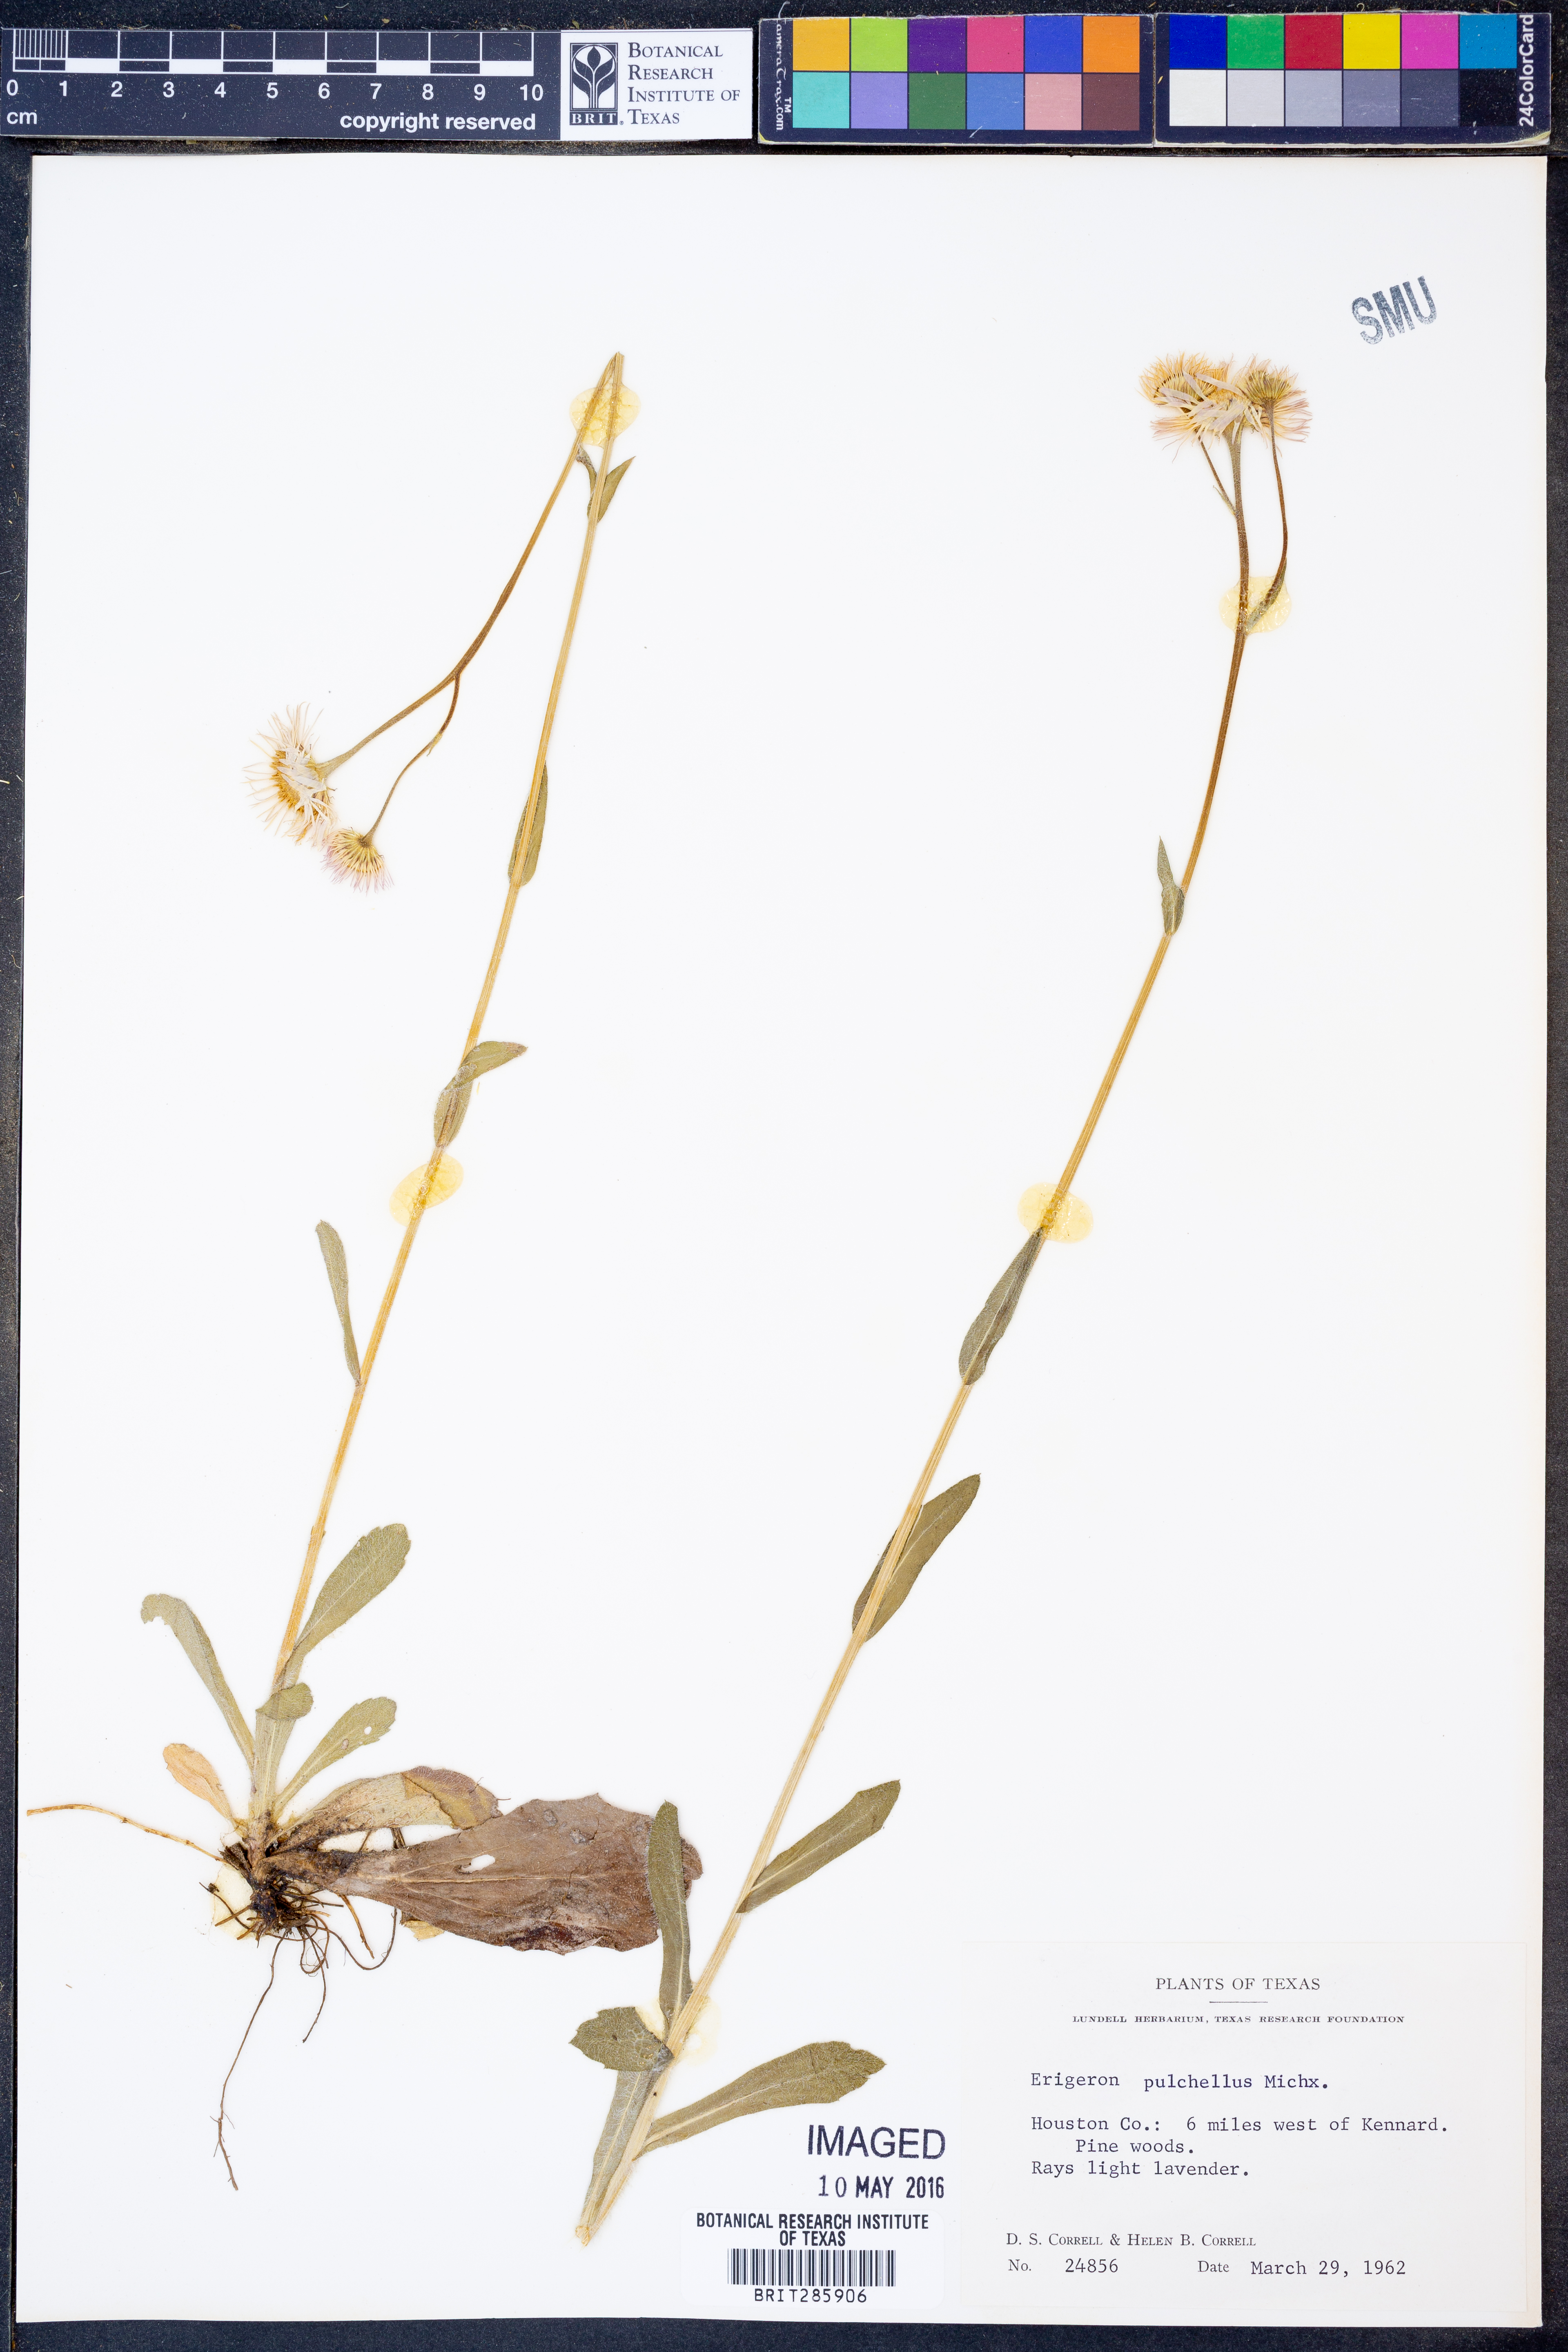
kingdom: Plantae
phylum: Tracheophyta
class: Magnoliopsida
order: Asterales
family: Asteraceae
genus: Erigeron
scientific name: Erigeron pulchellus
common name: Hairy fleabane
